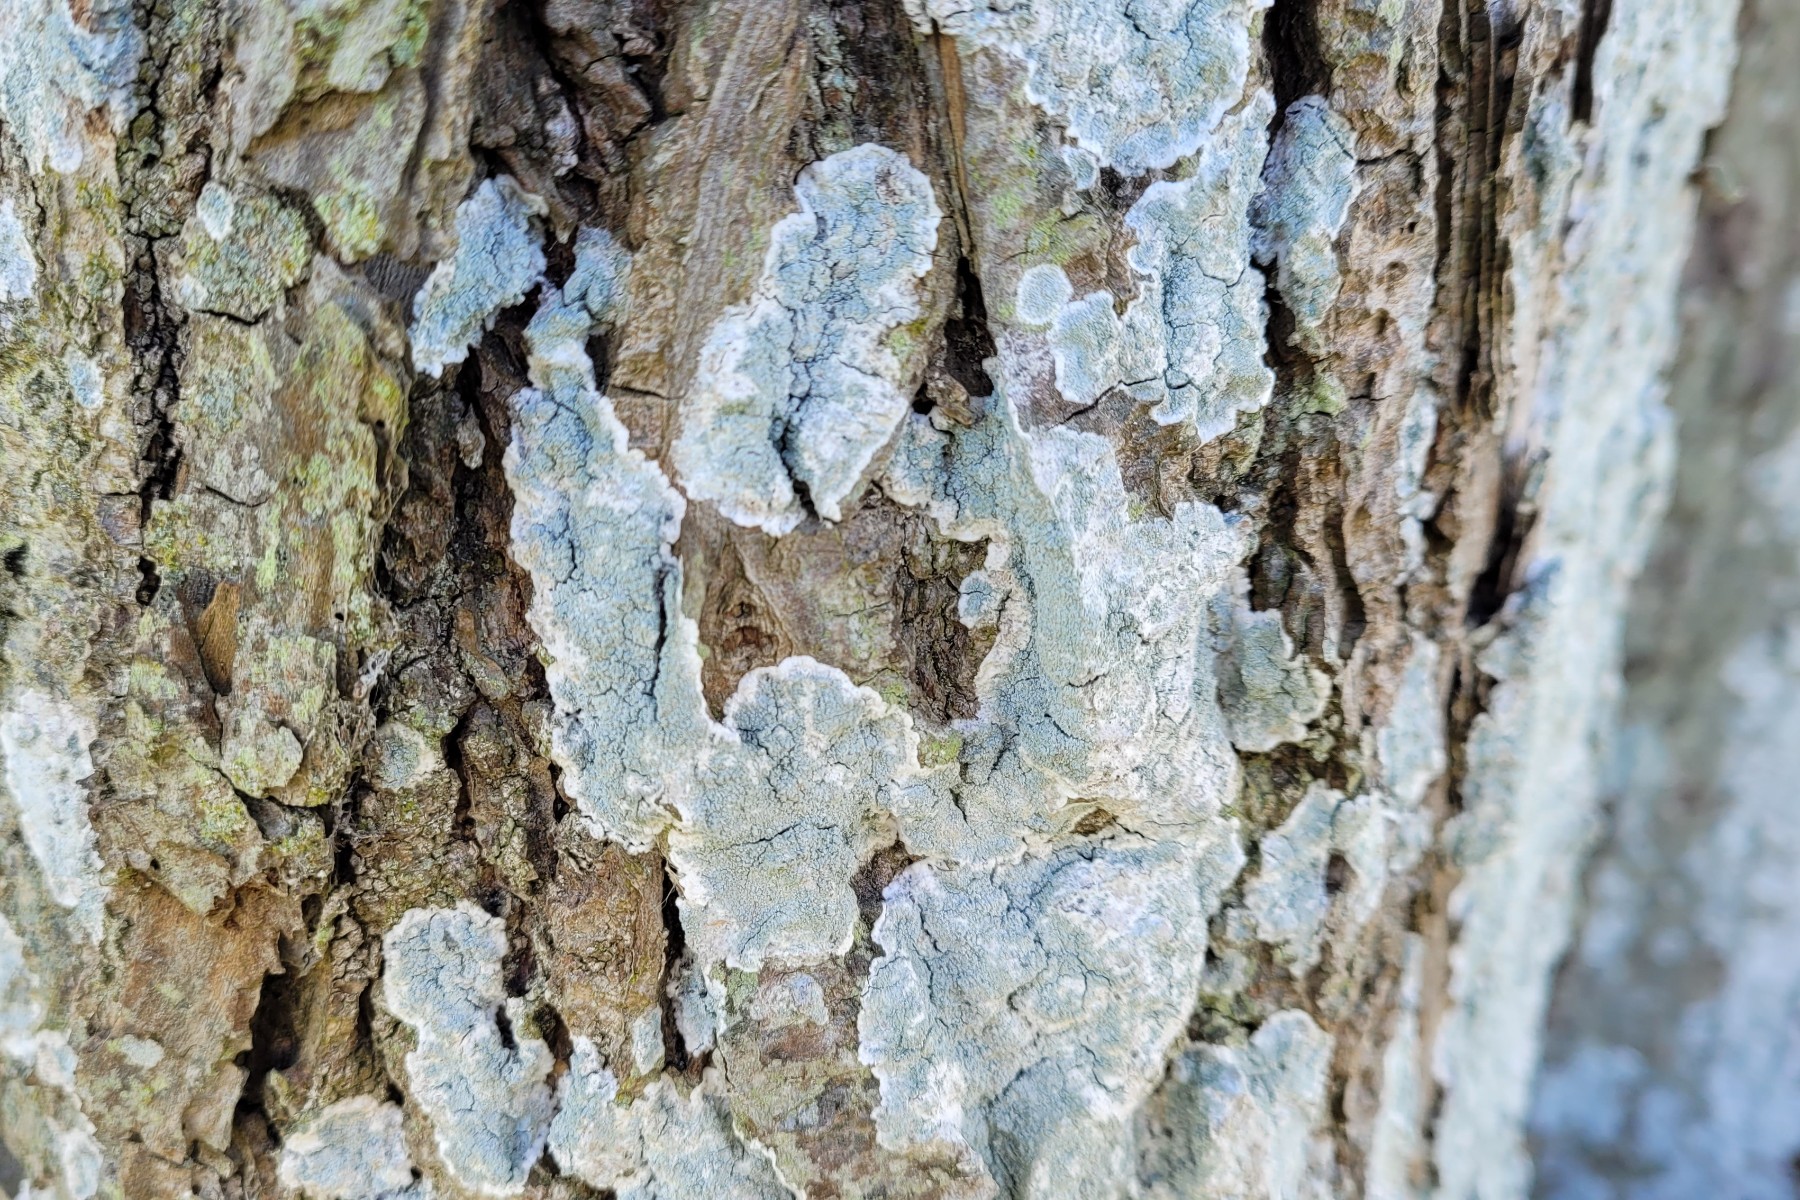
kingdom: Fungi
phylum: Ascomycota
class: Lecanoromycetes
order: Lecanorales
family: Haematommataceae
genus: Haematomma
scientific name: Haematomma ochroleucum
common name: gul trådkantlav
